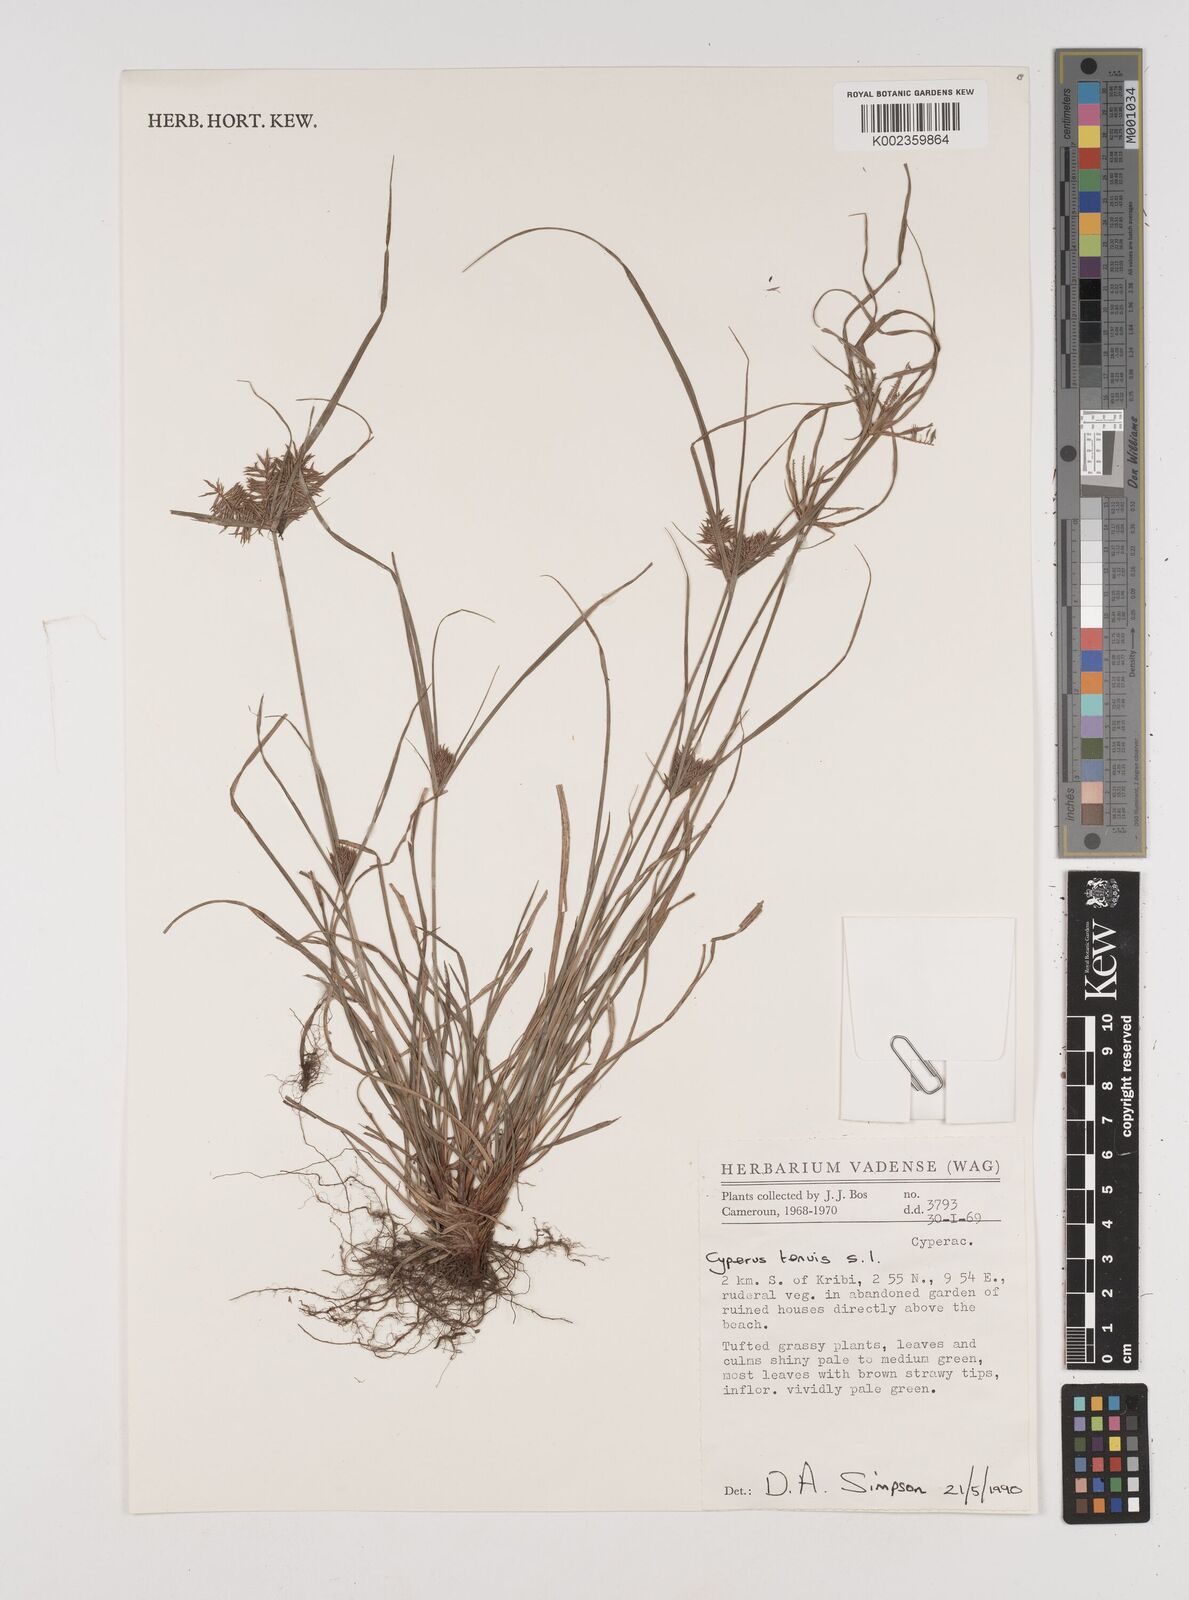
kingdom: Plantae
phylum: Tracheophyta
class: Liliopsida
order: Poales
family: Cyperaceae
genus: Cyperus
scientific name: Cyperus tenuis
